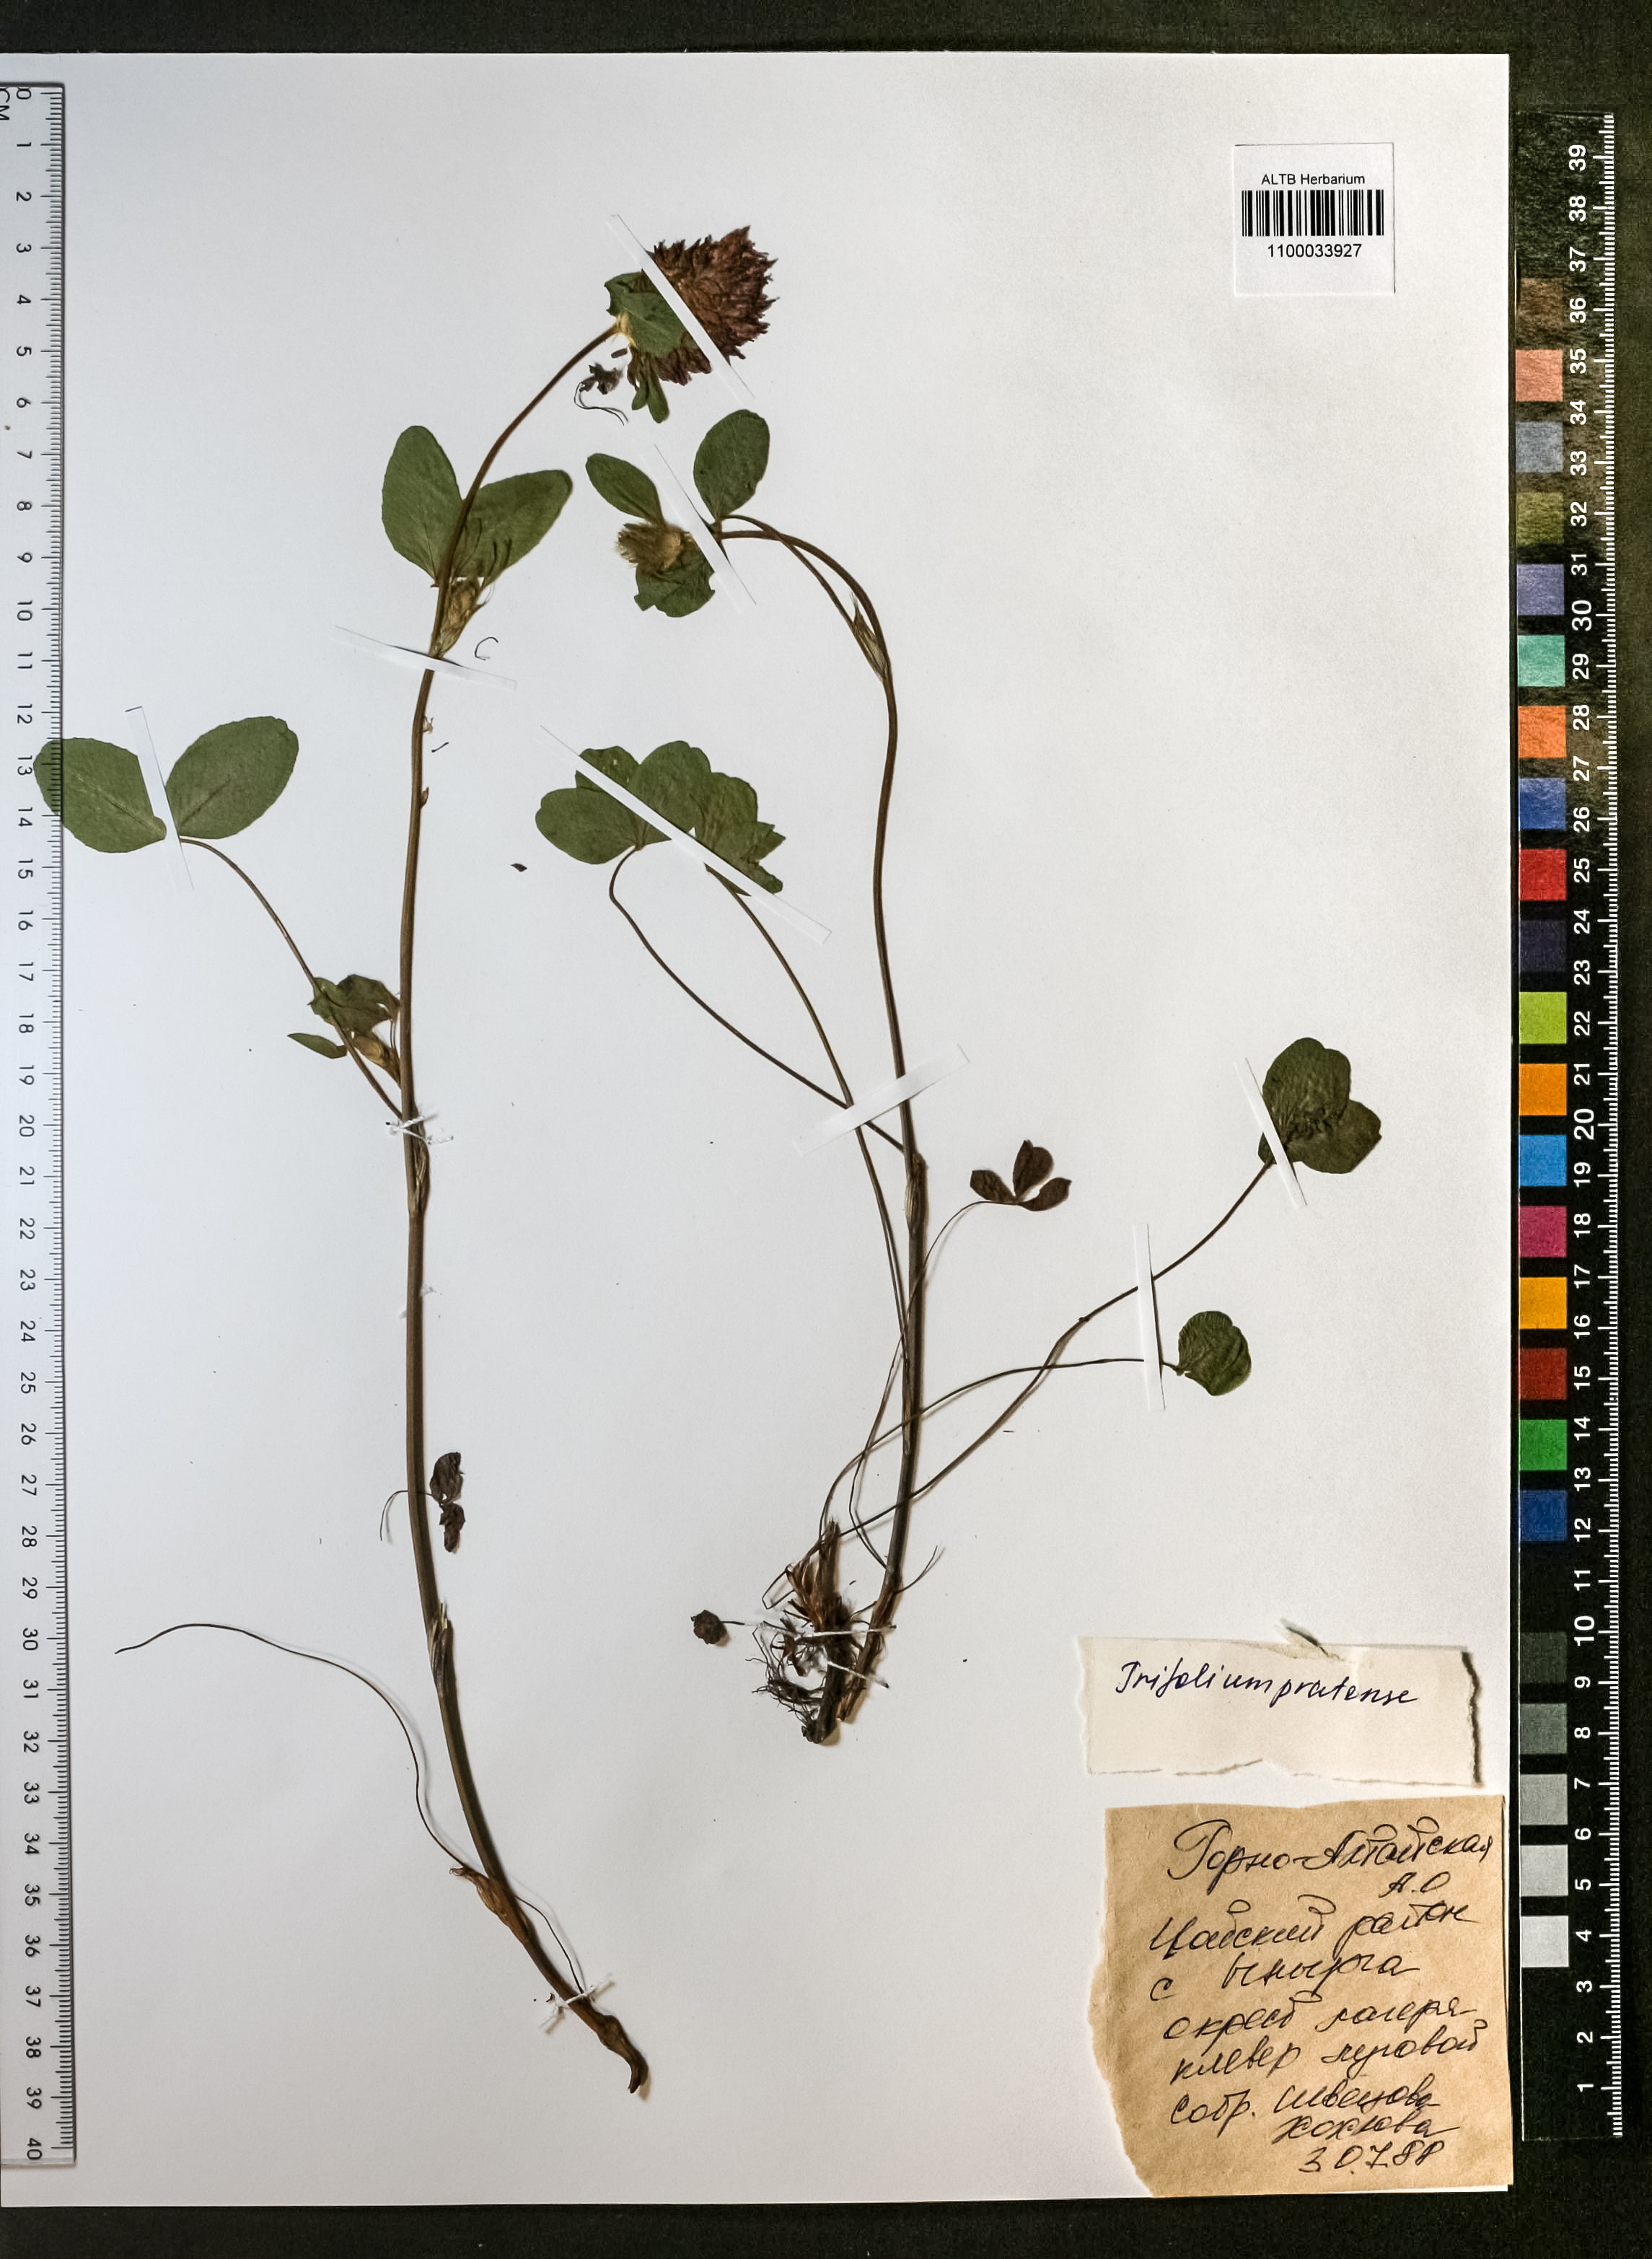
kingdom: Plantae
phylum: Tracheophyta
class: Magnoliopsida
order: Fabales
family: Fabaceae
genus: Trifolium
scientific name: Trifolium pratense
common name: Red clover
